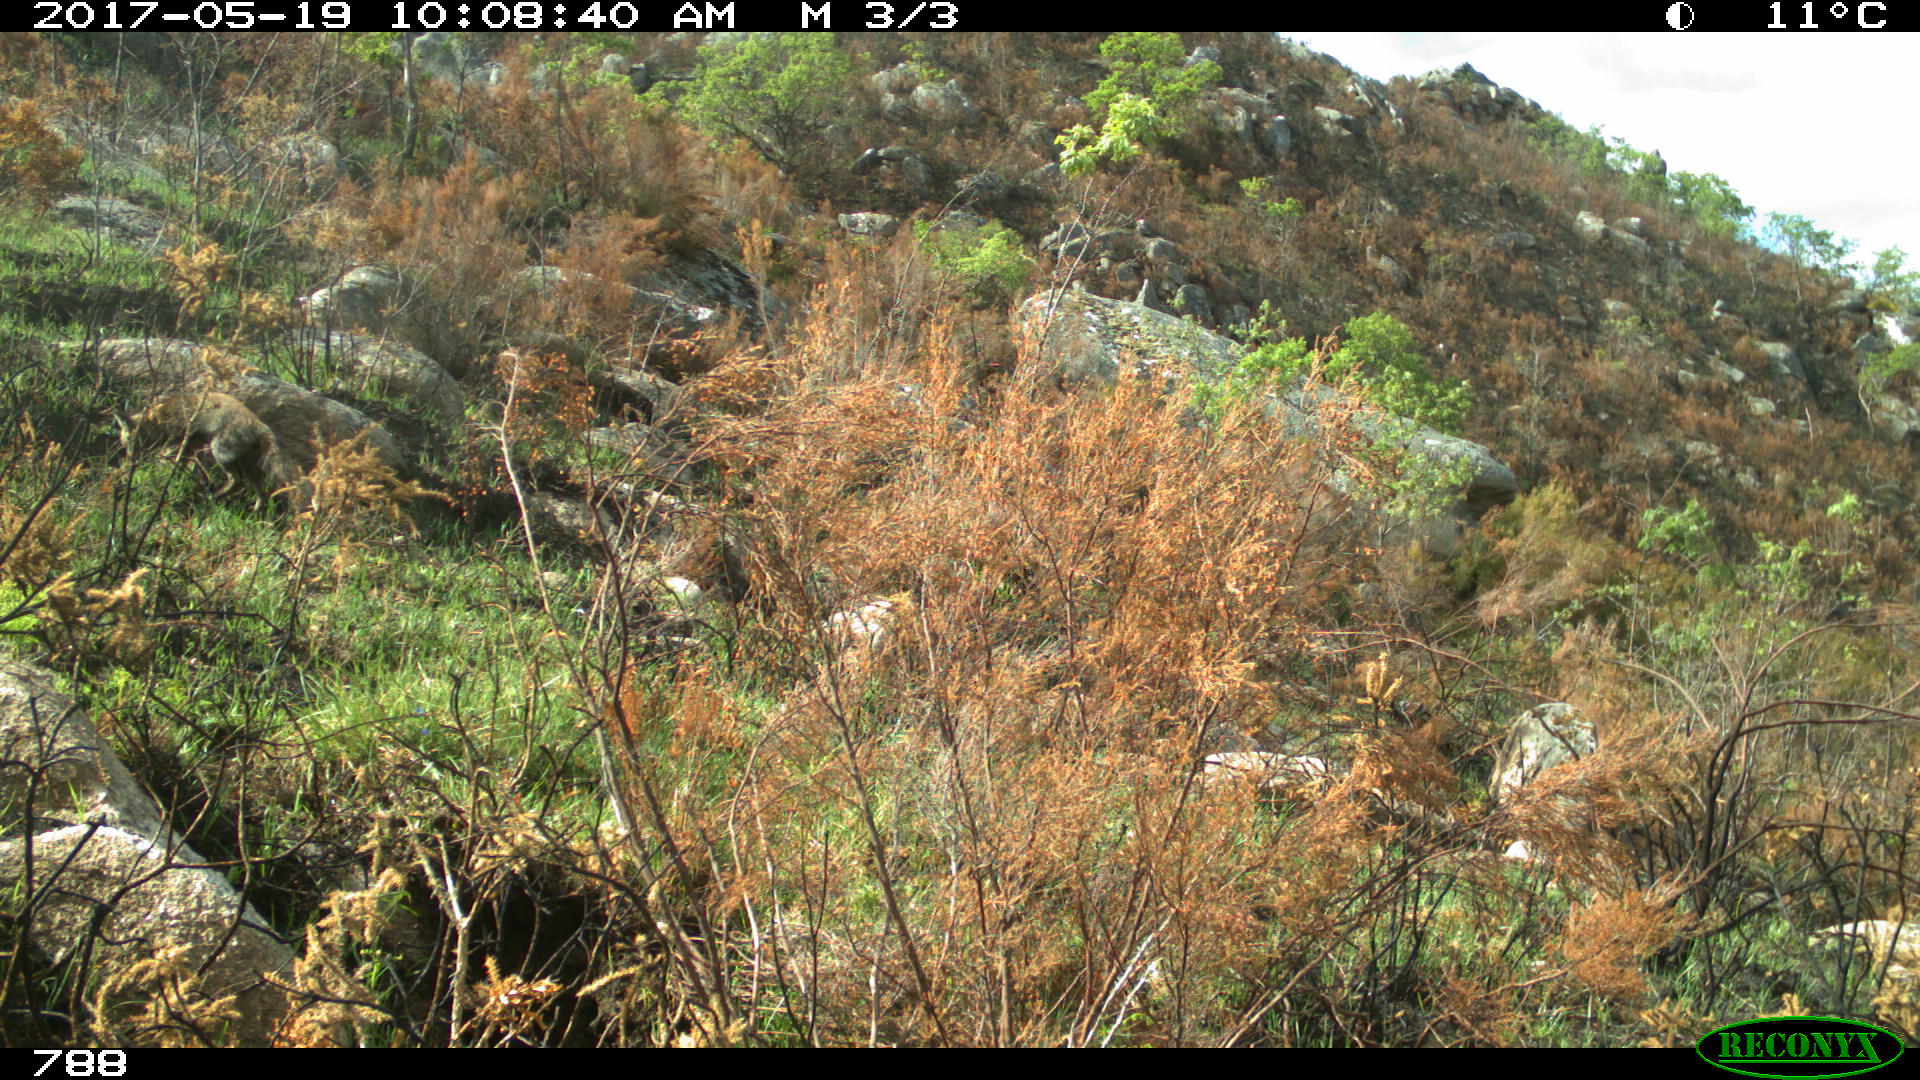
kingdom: Animalia
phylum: Chordata
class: Mammalia
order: Carnivora
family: Canidae
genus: Vulpes
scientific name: Vulpes vulpes
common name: Red fox
